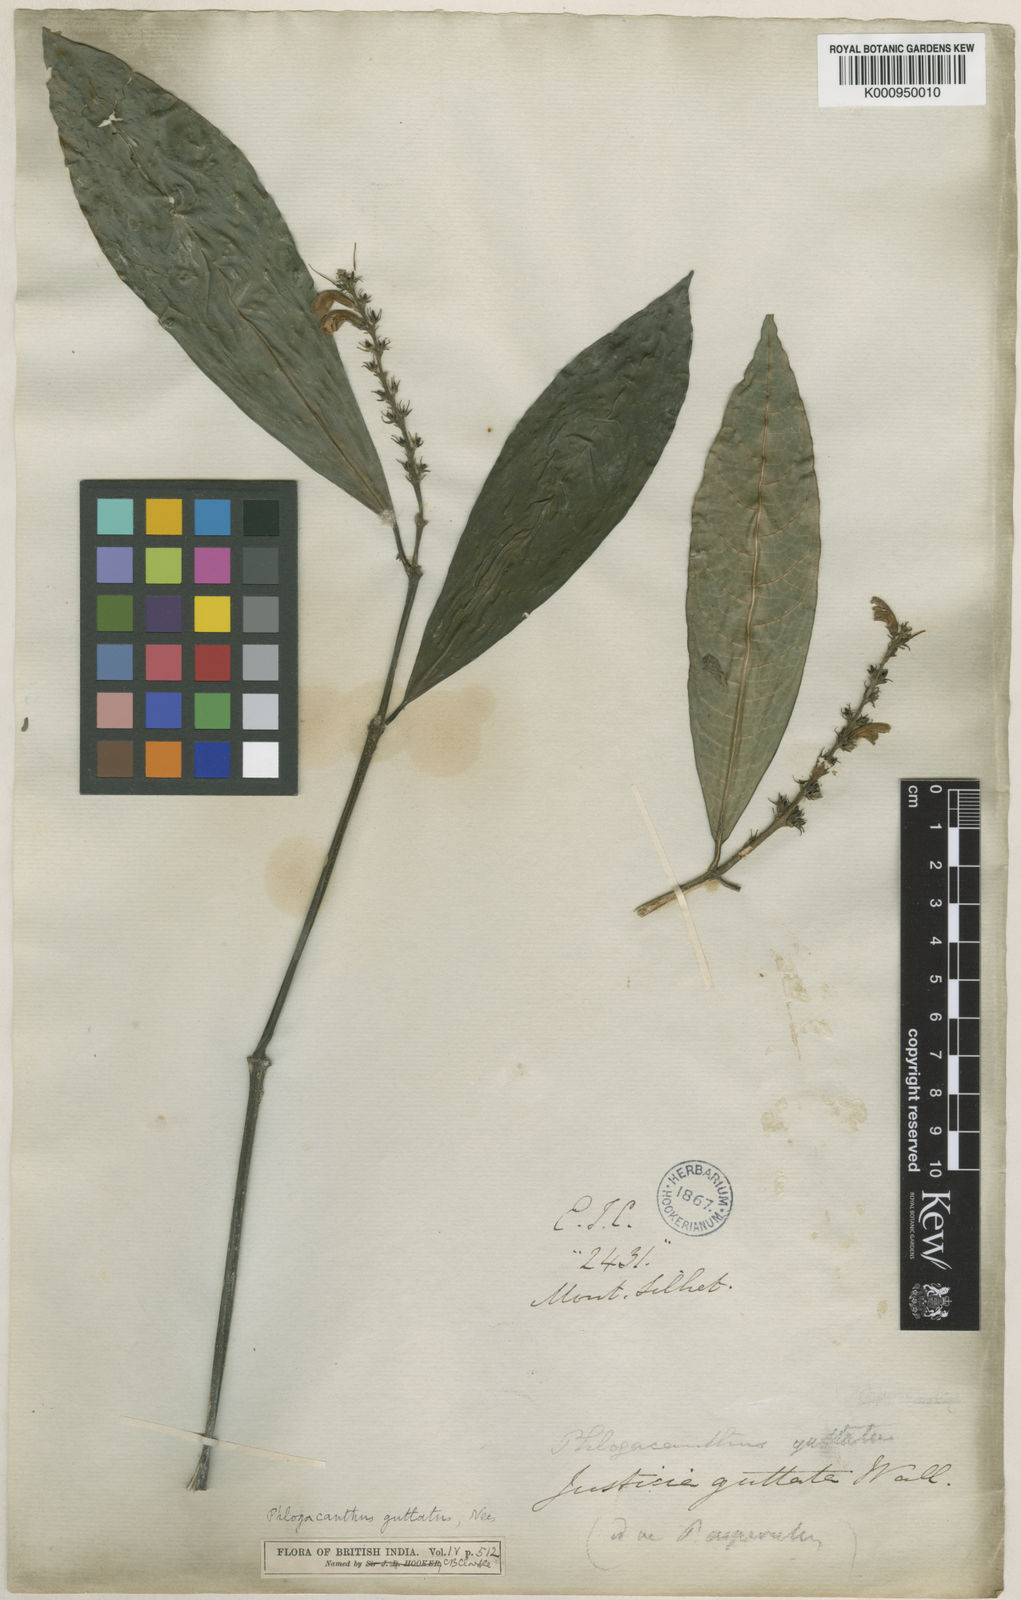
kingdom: Plantae
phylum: Tracheophyta
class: Magnoliopsida
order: Lamiales
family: Acanthaceae
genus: Phlogacanthus
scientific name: Phlogacanthus guttatus
